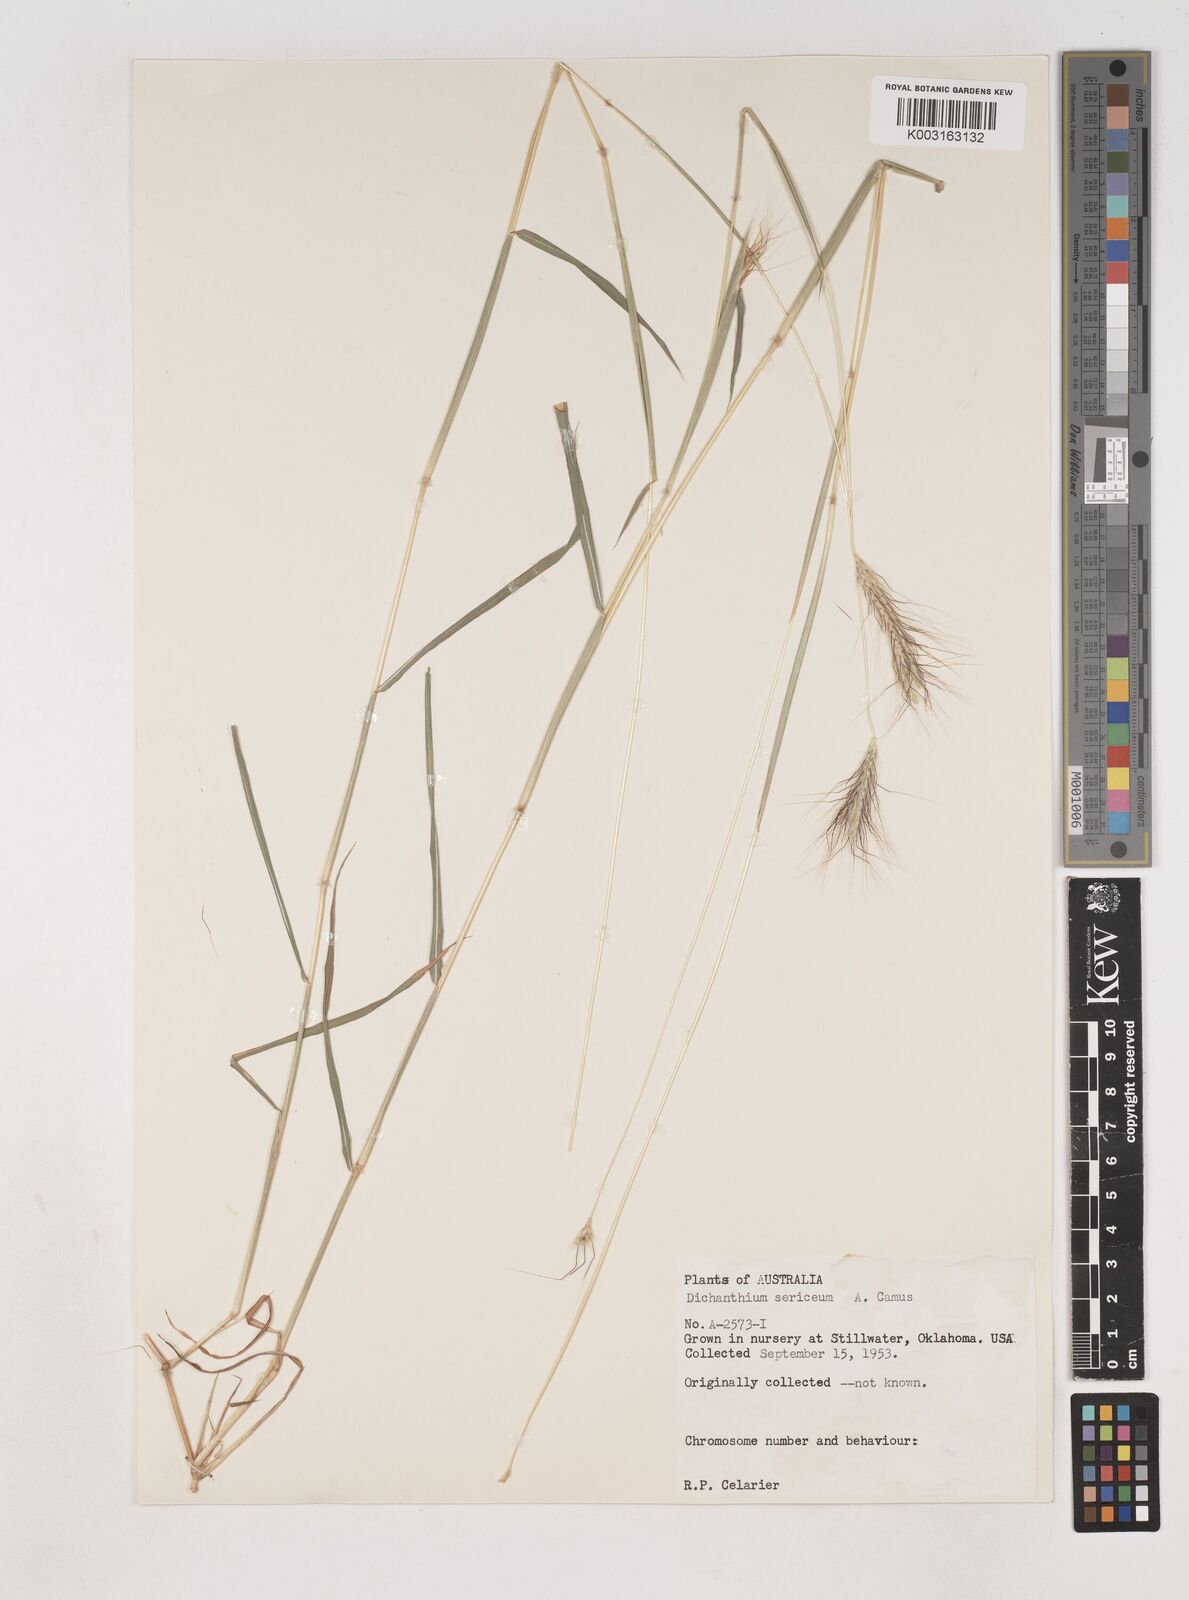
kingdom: Plantae
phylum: Tracheophyta
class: Liliopsida
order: Poales
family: Poaceae
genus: Dichanthium
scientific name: Dichanthium sericeum
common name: Silky bluestem
